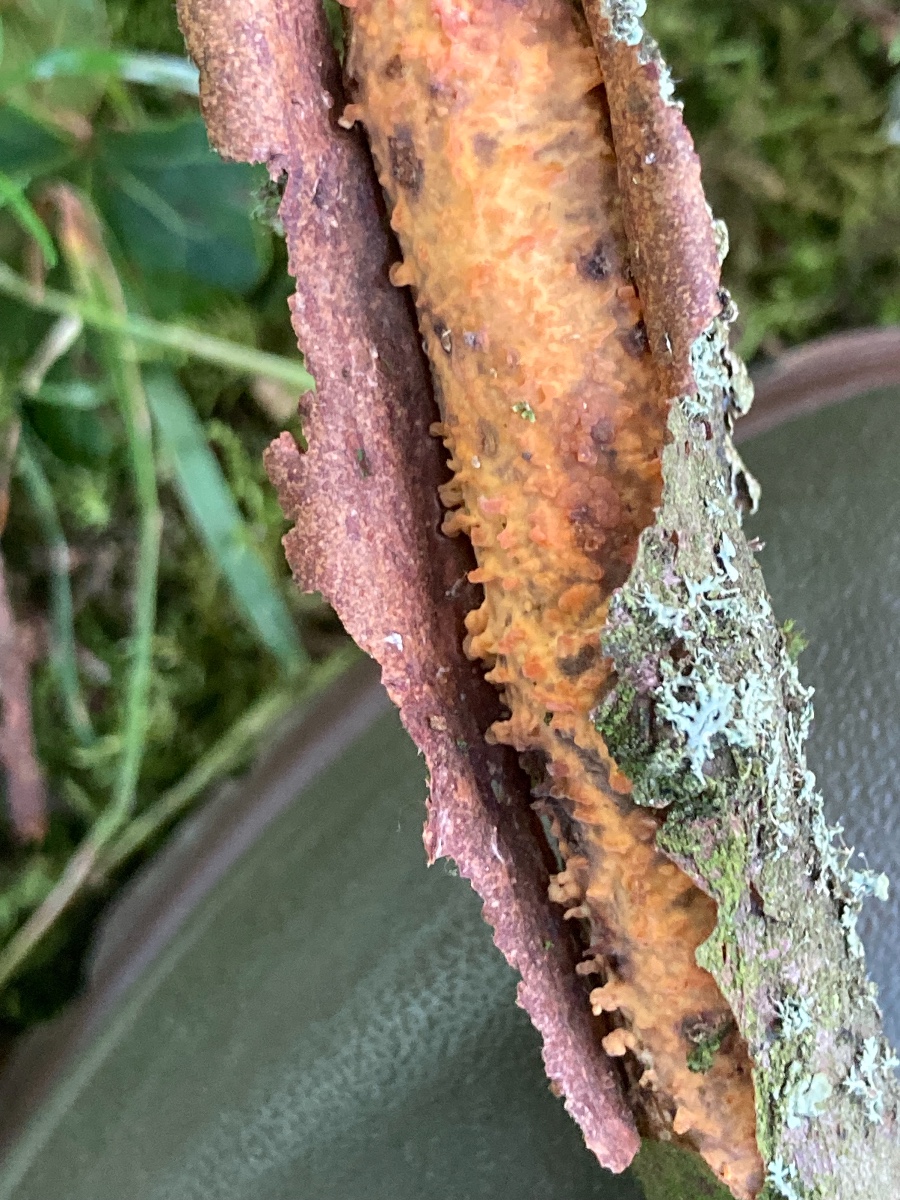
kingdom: Fungi
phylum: Basidiomycota
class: Agaricomycetes
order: Russulales
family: Peniophoraceae
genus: Peniophora
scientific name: Peniophora laeta
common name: tandet voksskind
